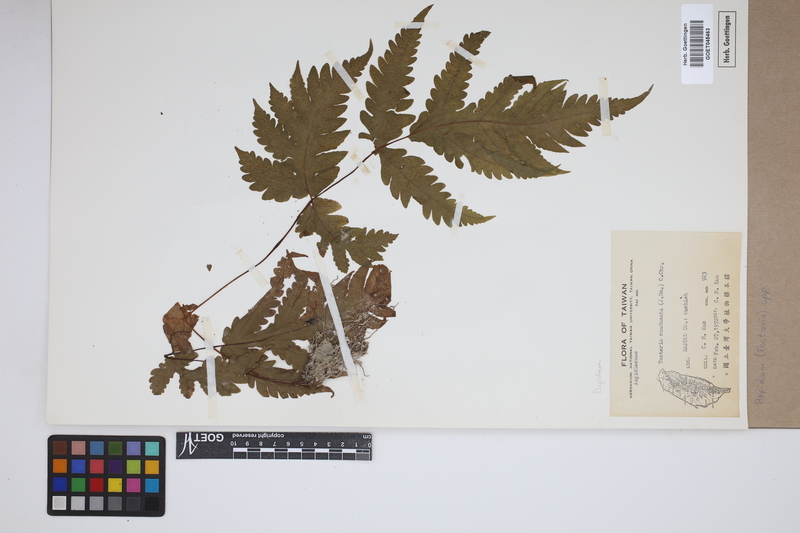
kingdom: Plantae
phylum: Tracheophyta
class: Polypodiopsida
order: Polypodiales
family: Tectariaceae
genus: Tectaria
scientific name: Tectaria Aspidium spec
